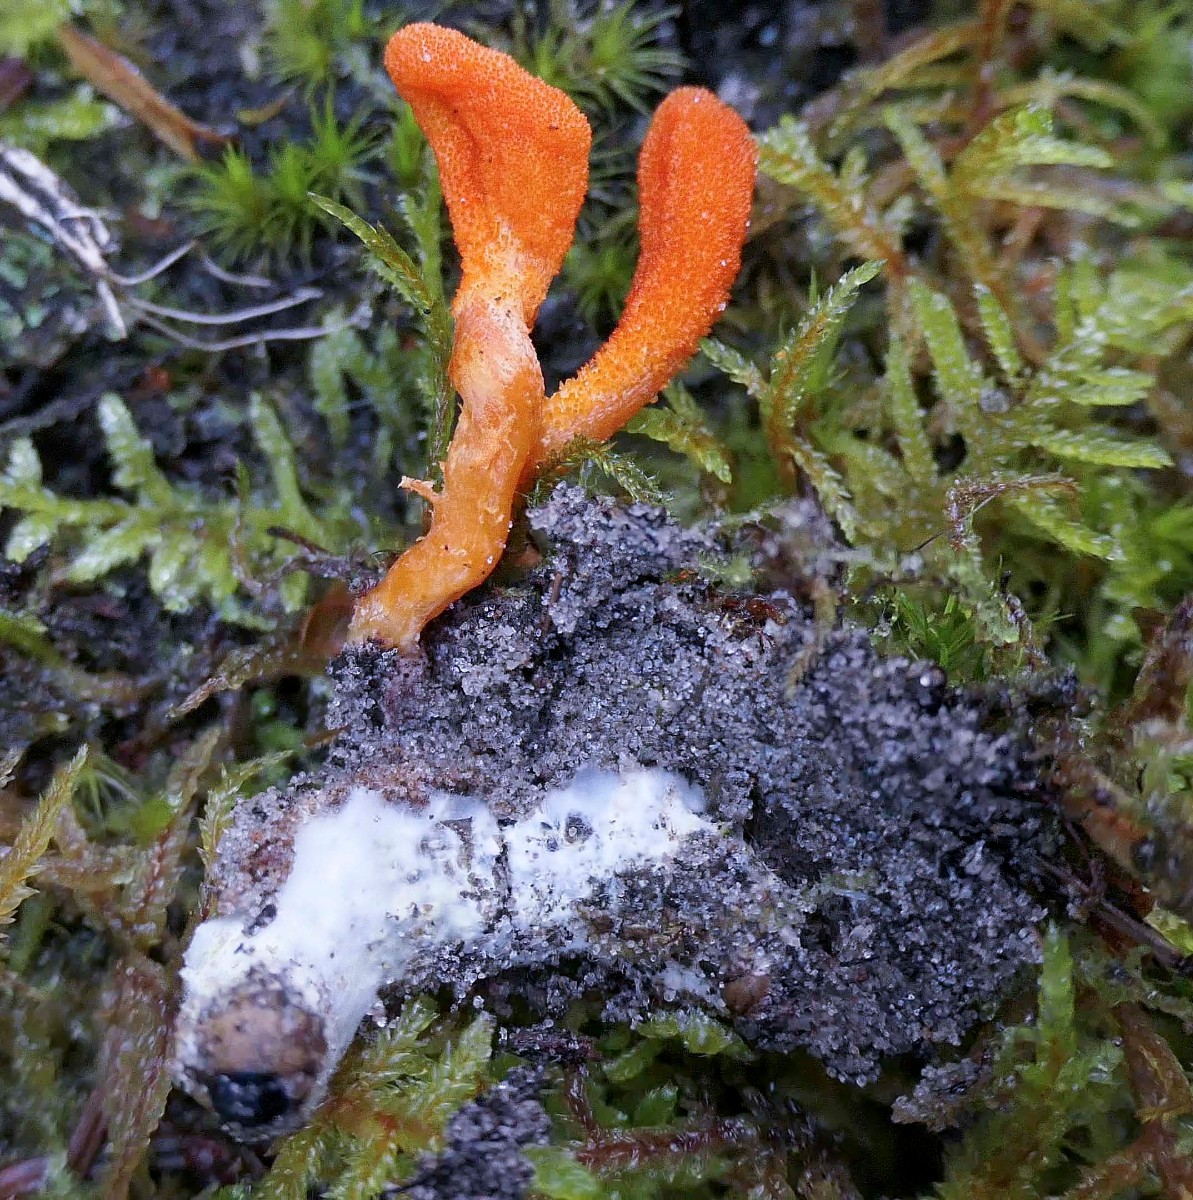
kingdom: Fungi
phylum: Ascomycota
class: Sordariomycetes
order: Hypocreales
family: Cordycipitaceae
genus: Cordyceps
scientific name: Cordyceps militaris
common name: puppe-snyltekølle
